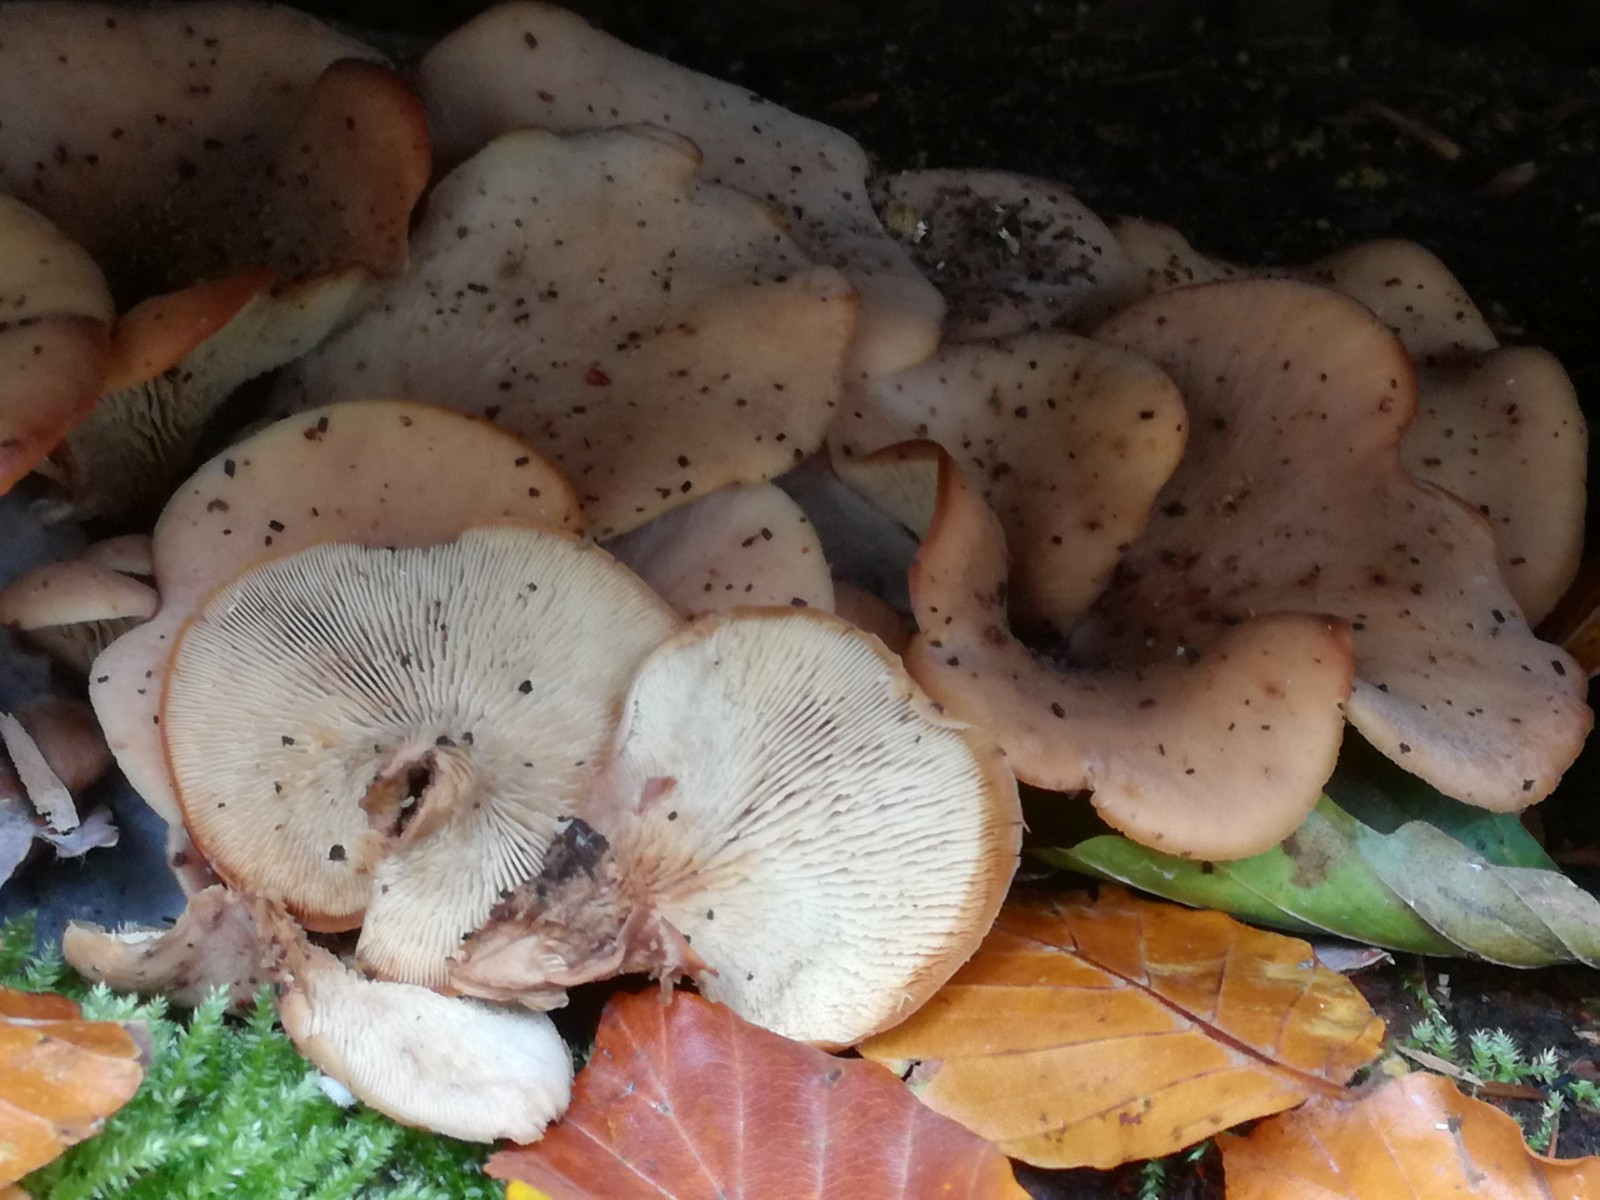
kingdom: Fungi
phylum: Basidiomycota
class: Agaricomycetes
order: Russulales
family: Auriscalpiaceae
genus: Lentinellus
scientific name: Lentinellus ursinus
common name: børstehåret savbladhat
